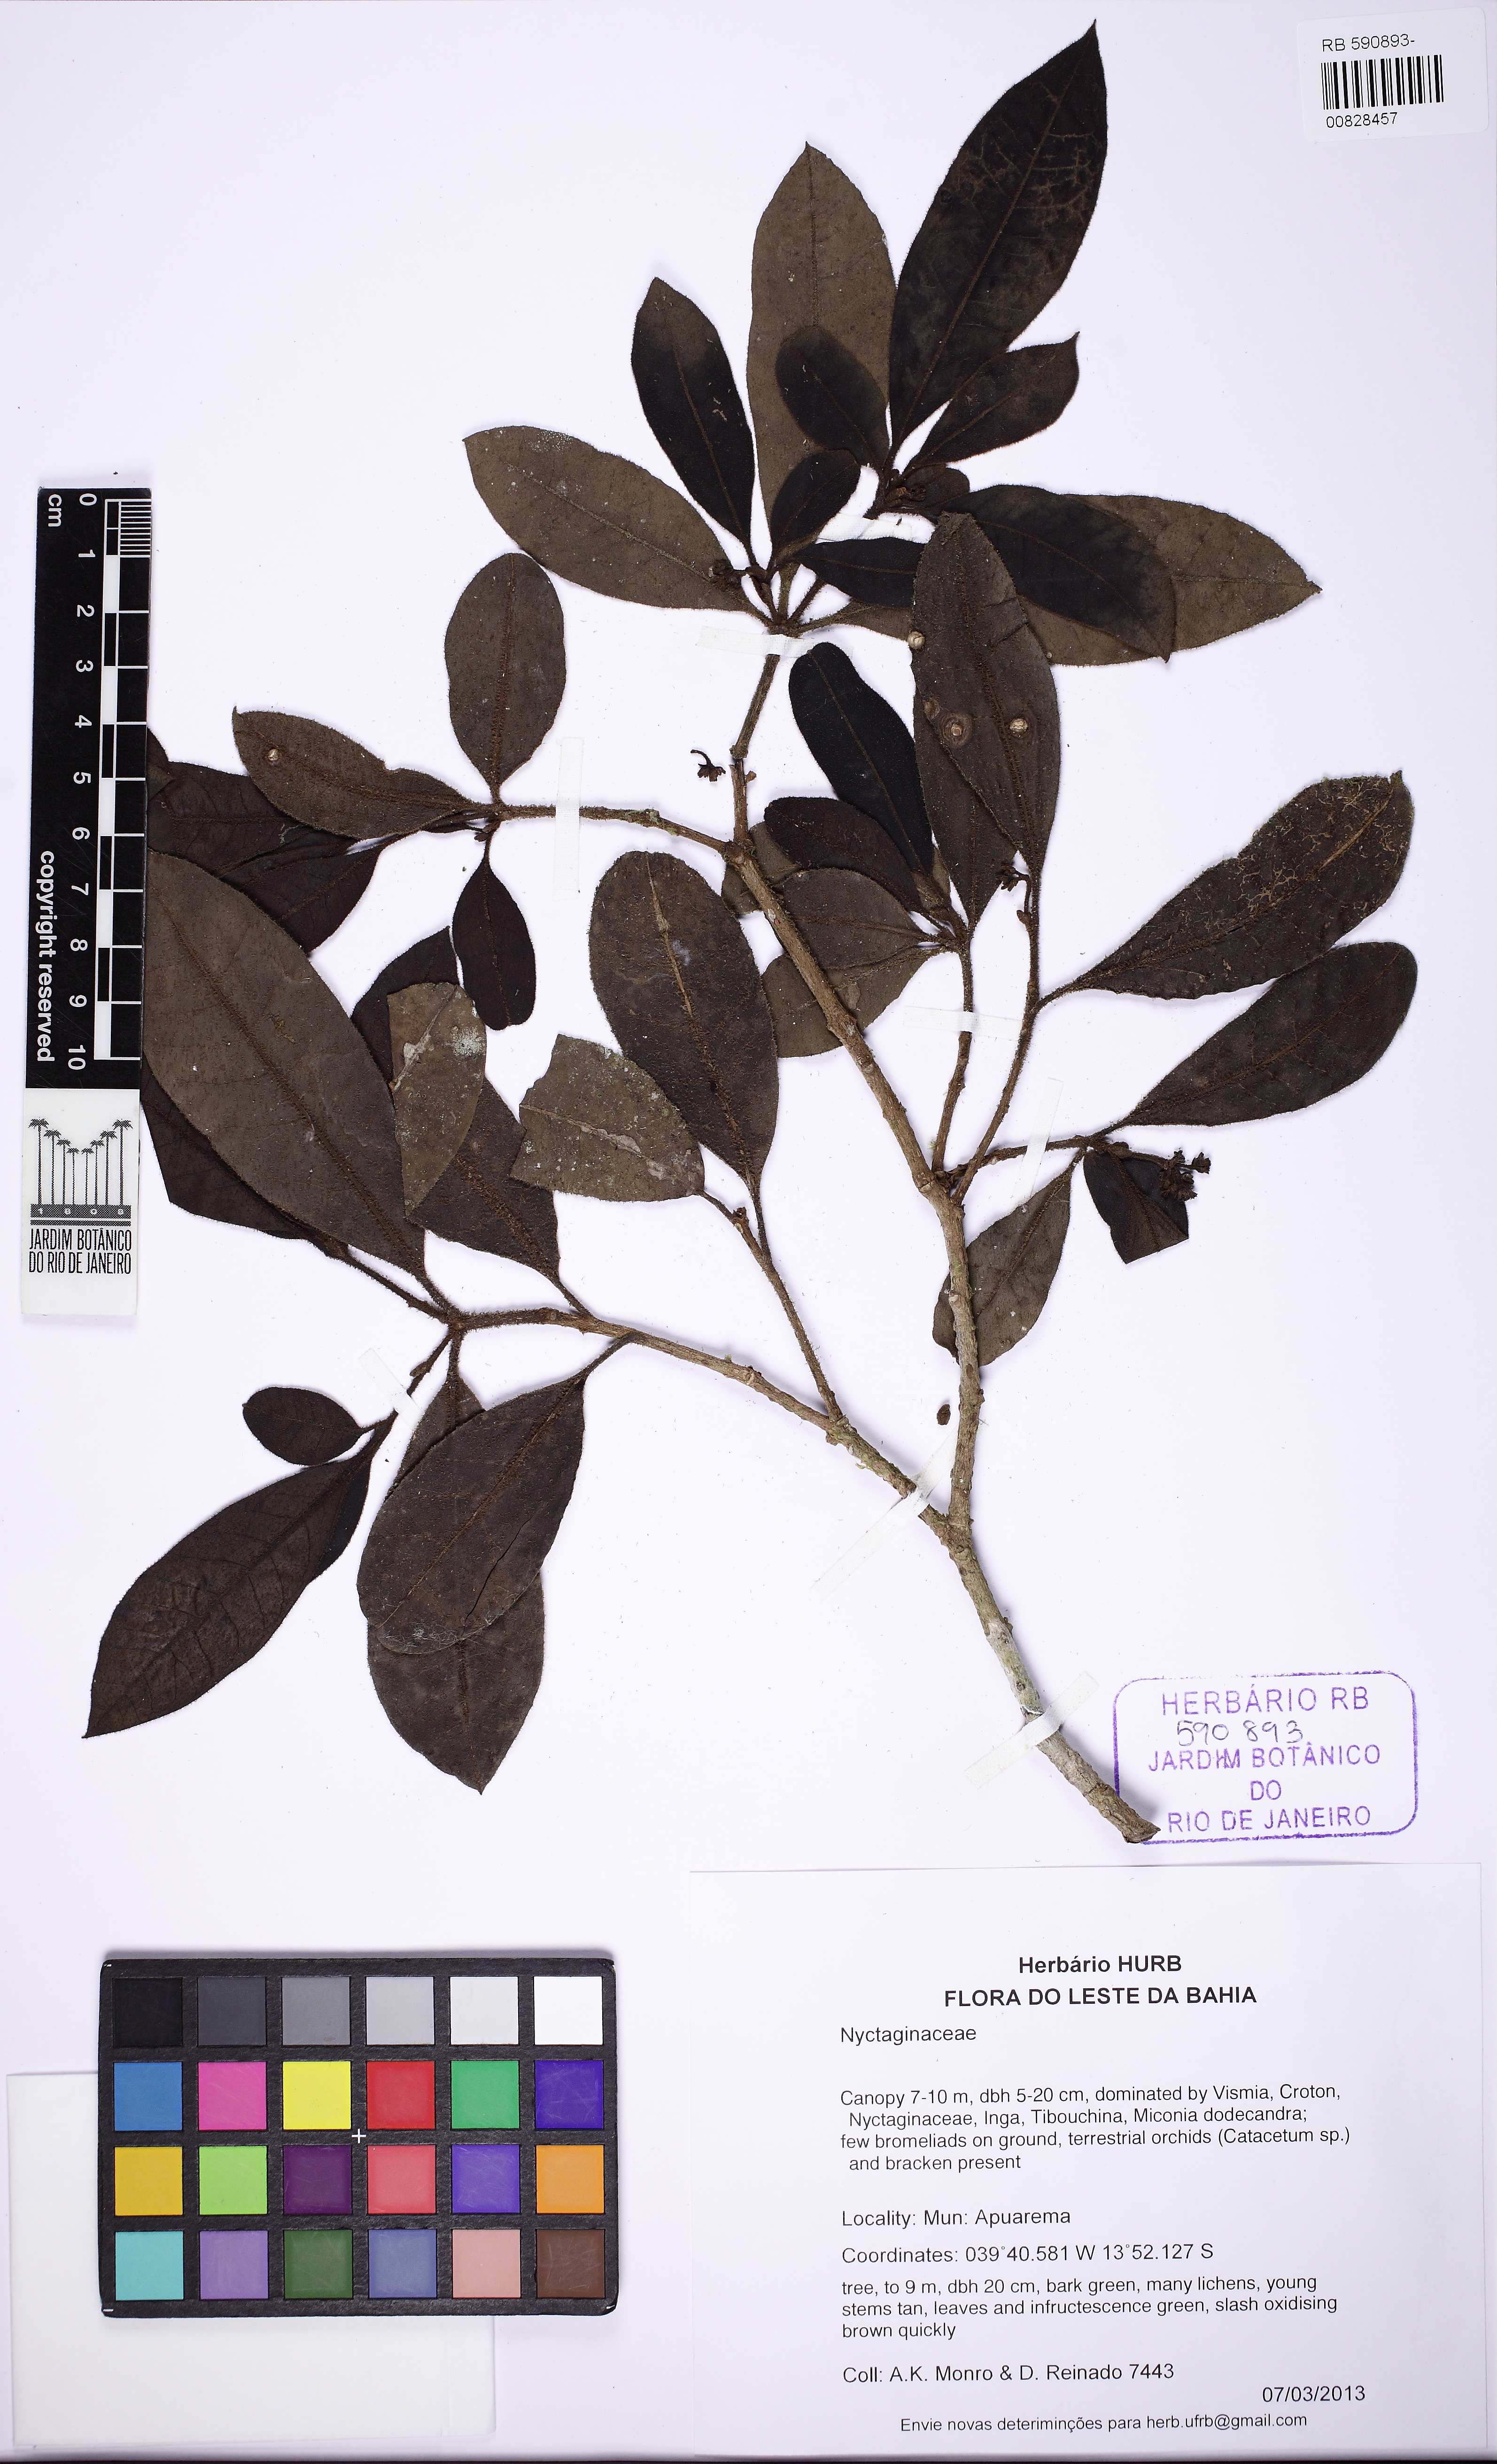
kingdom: Plantae
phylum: Tracheophyta
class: Magnoliopsida
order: Caryophyllales
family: Nyctaginaceae
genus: Guapira
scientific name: Guapira hirsuta
